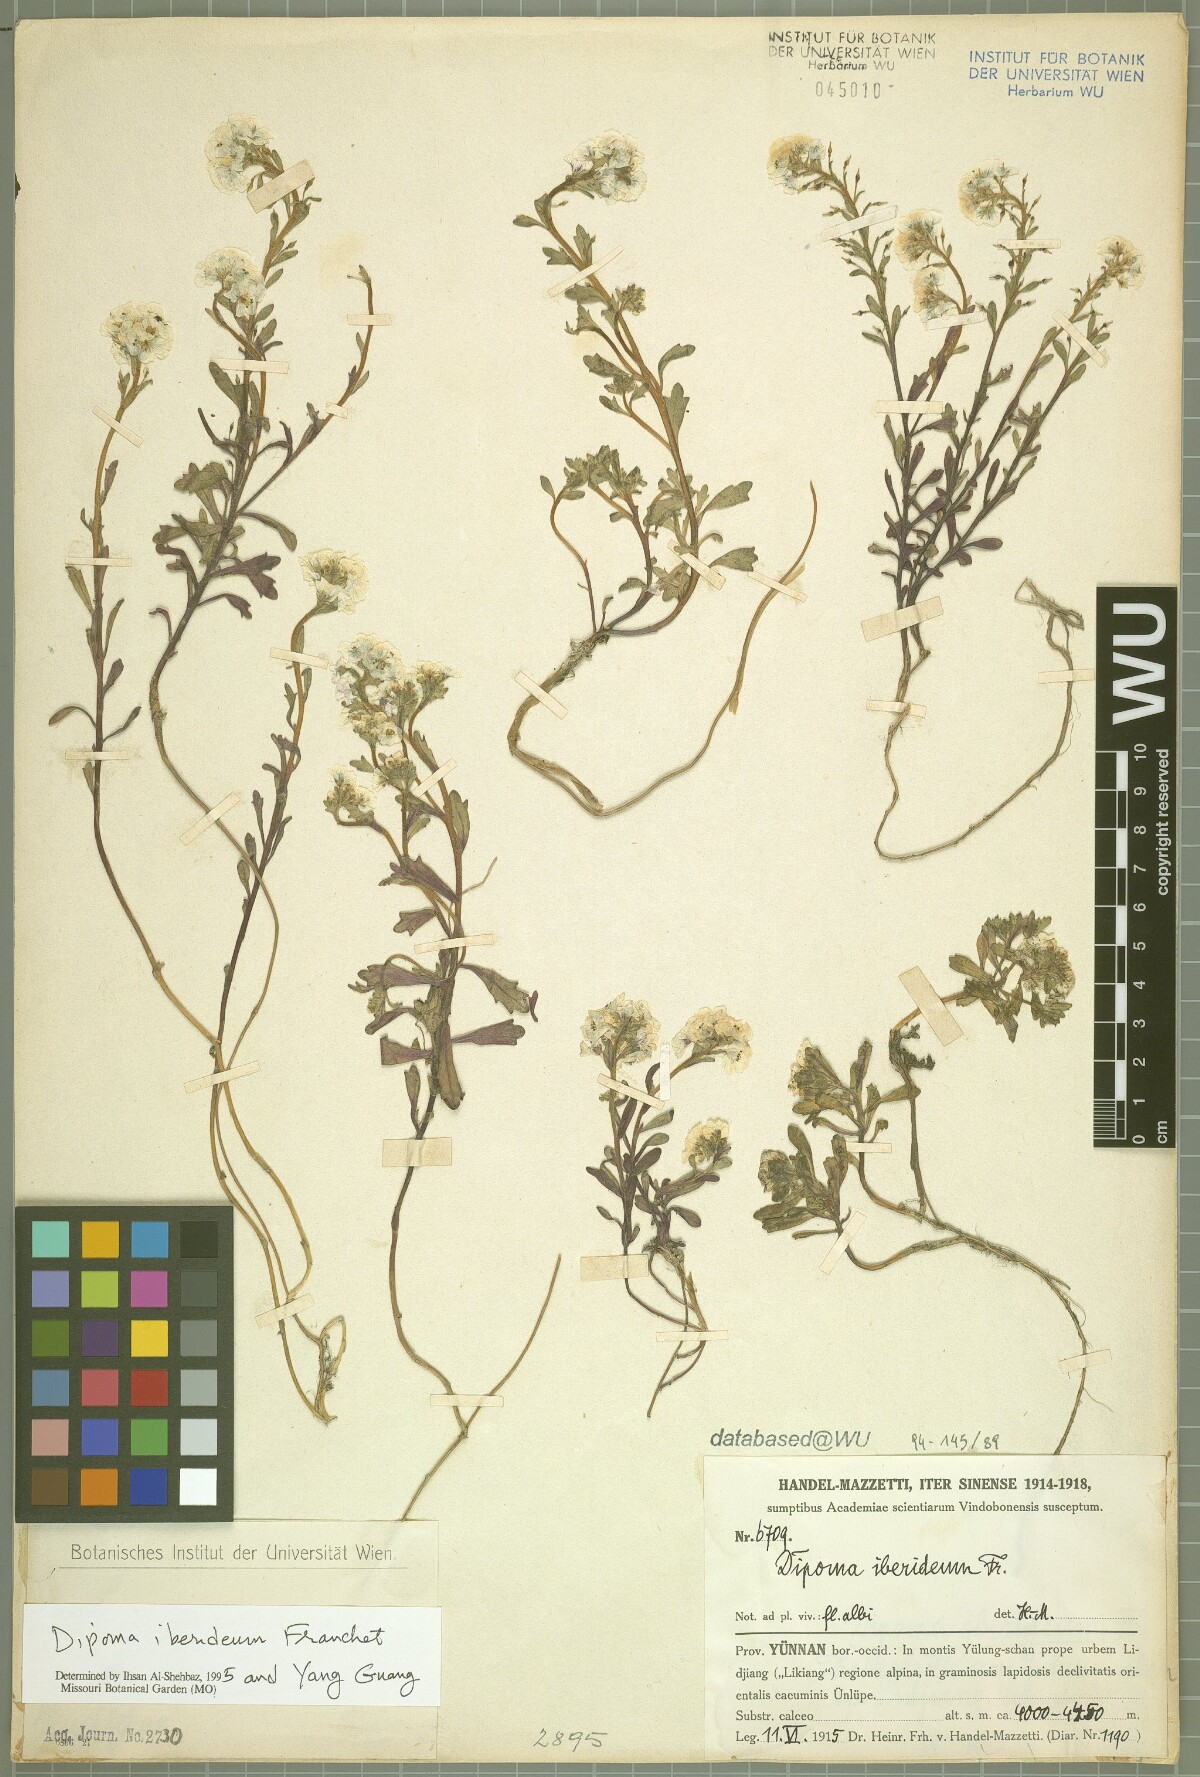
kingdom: Plantae
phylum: Tracheophyta
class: Magnoliopsida
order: Brassicales
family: Brassicaceae
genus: Dipoma
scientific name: Dipoma iberideum
